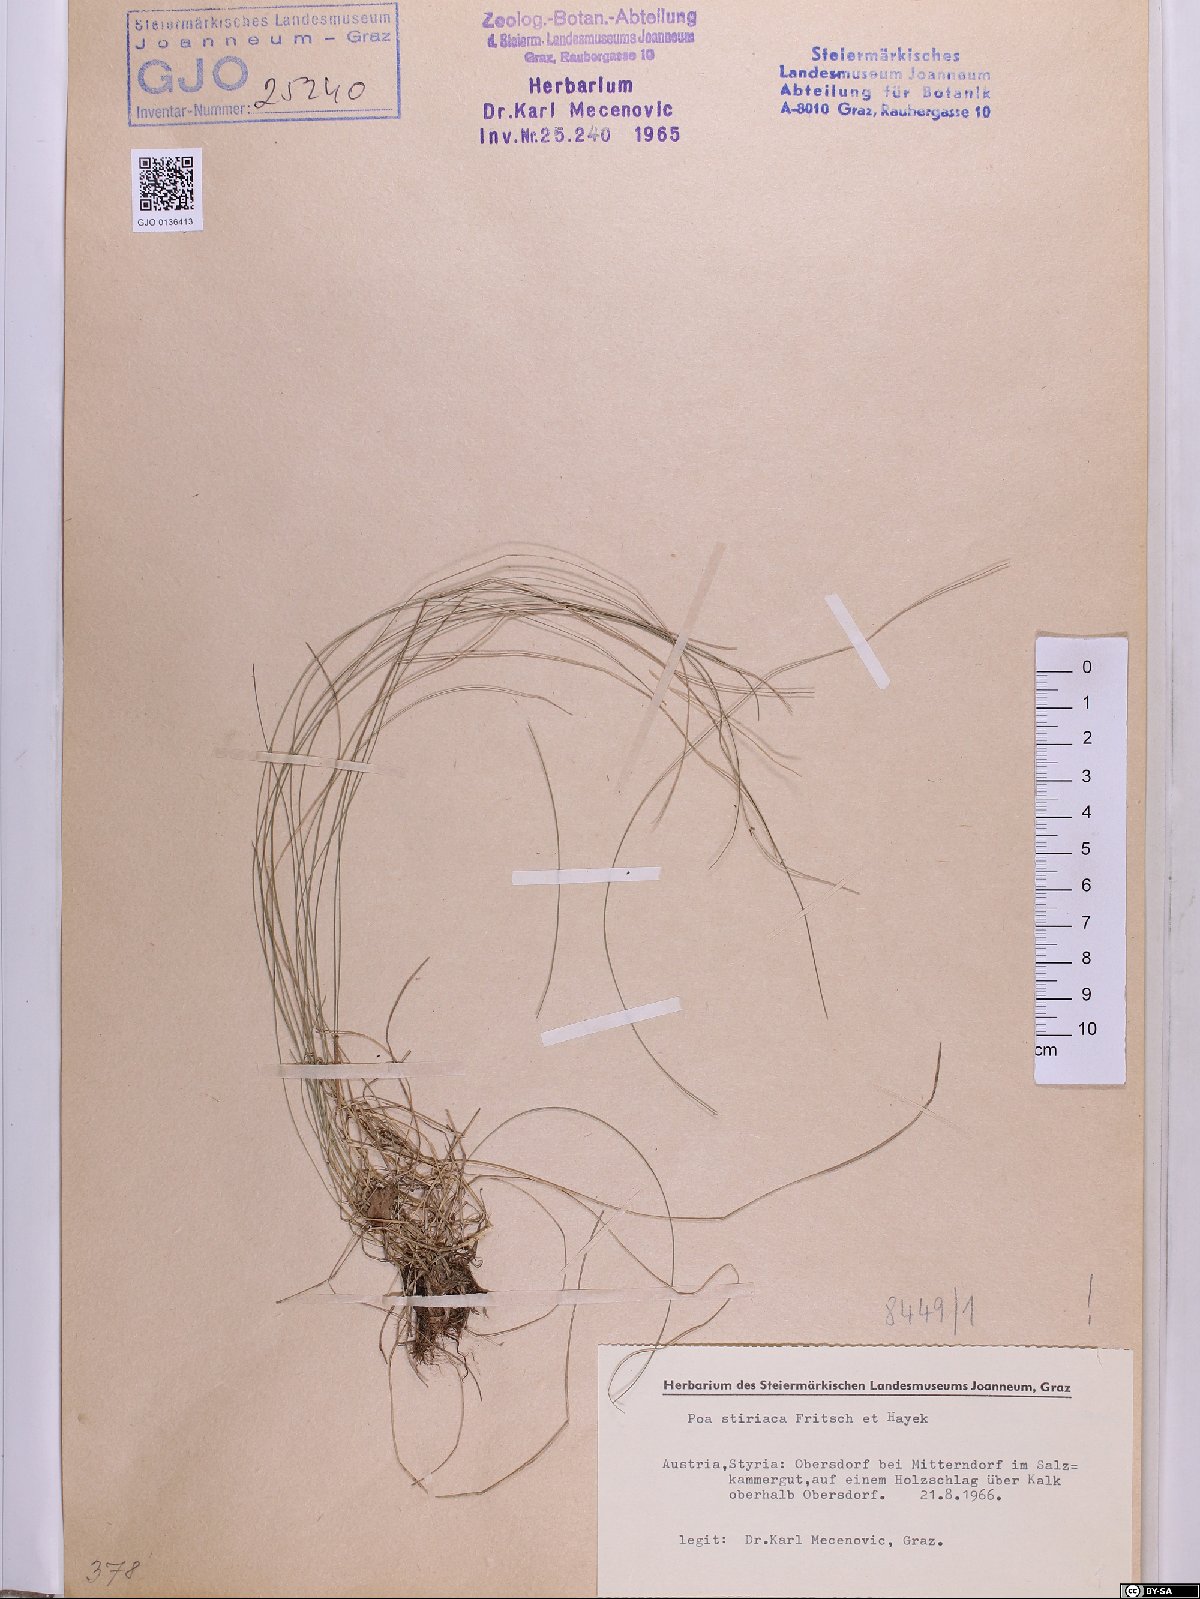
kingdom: Plantae
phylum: Tracheophyta
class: Liliopsida
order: Poales
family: Poaceae
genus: Poa
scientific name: Poa stiriaca
